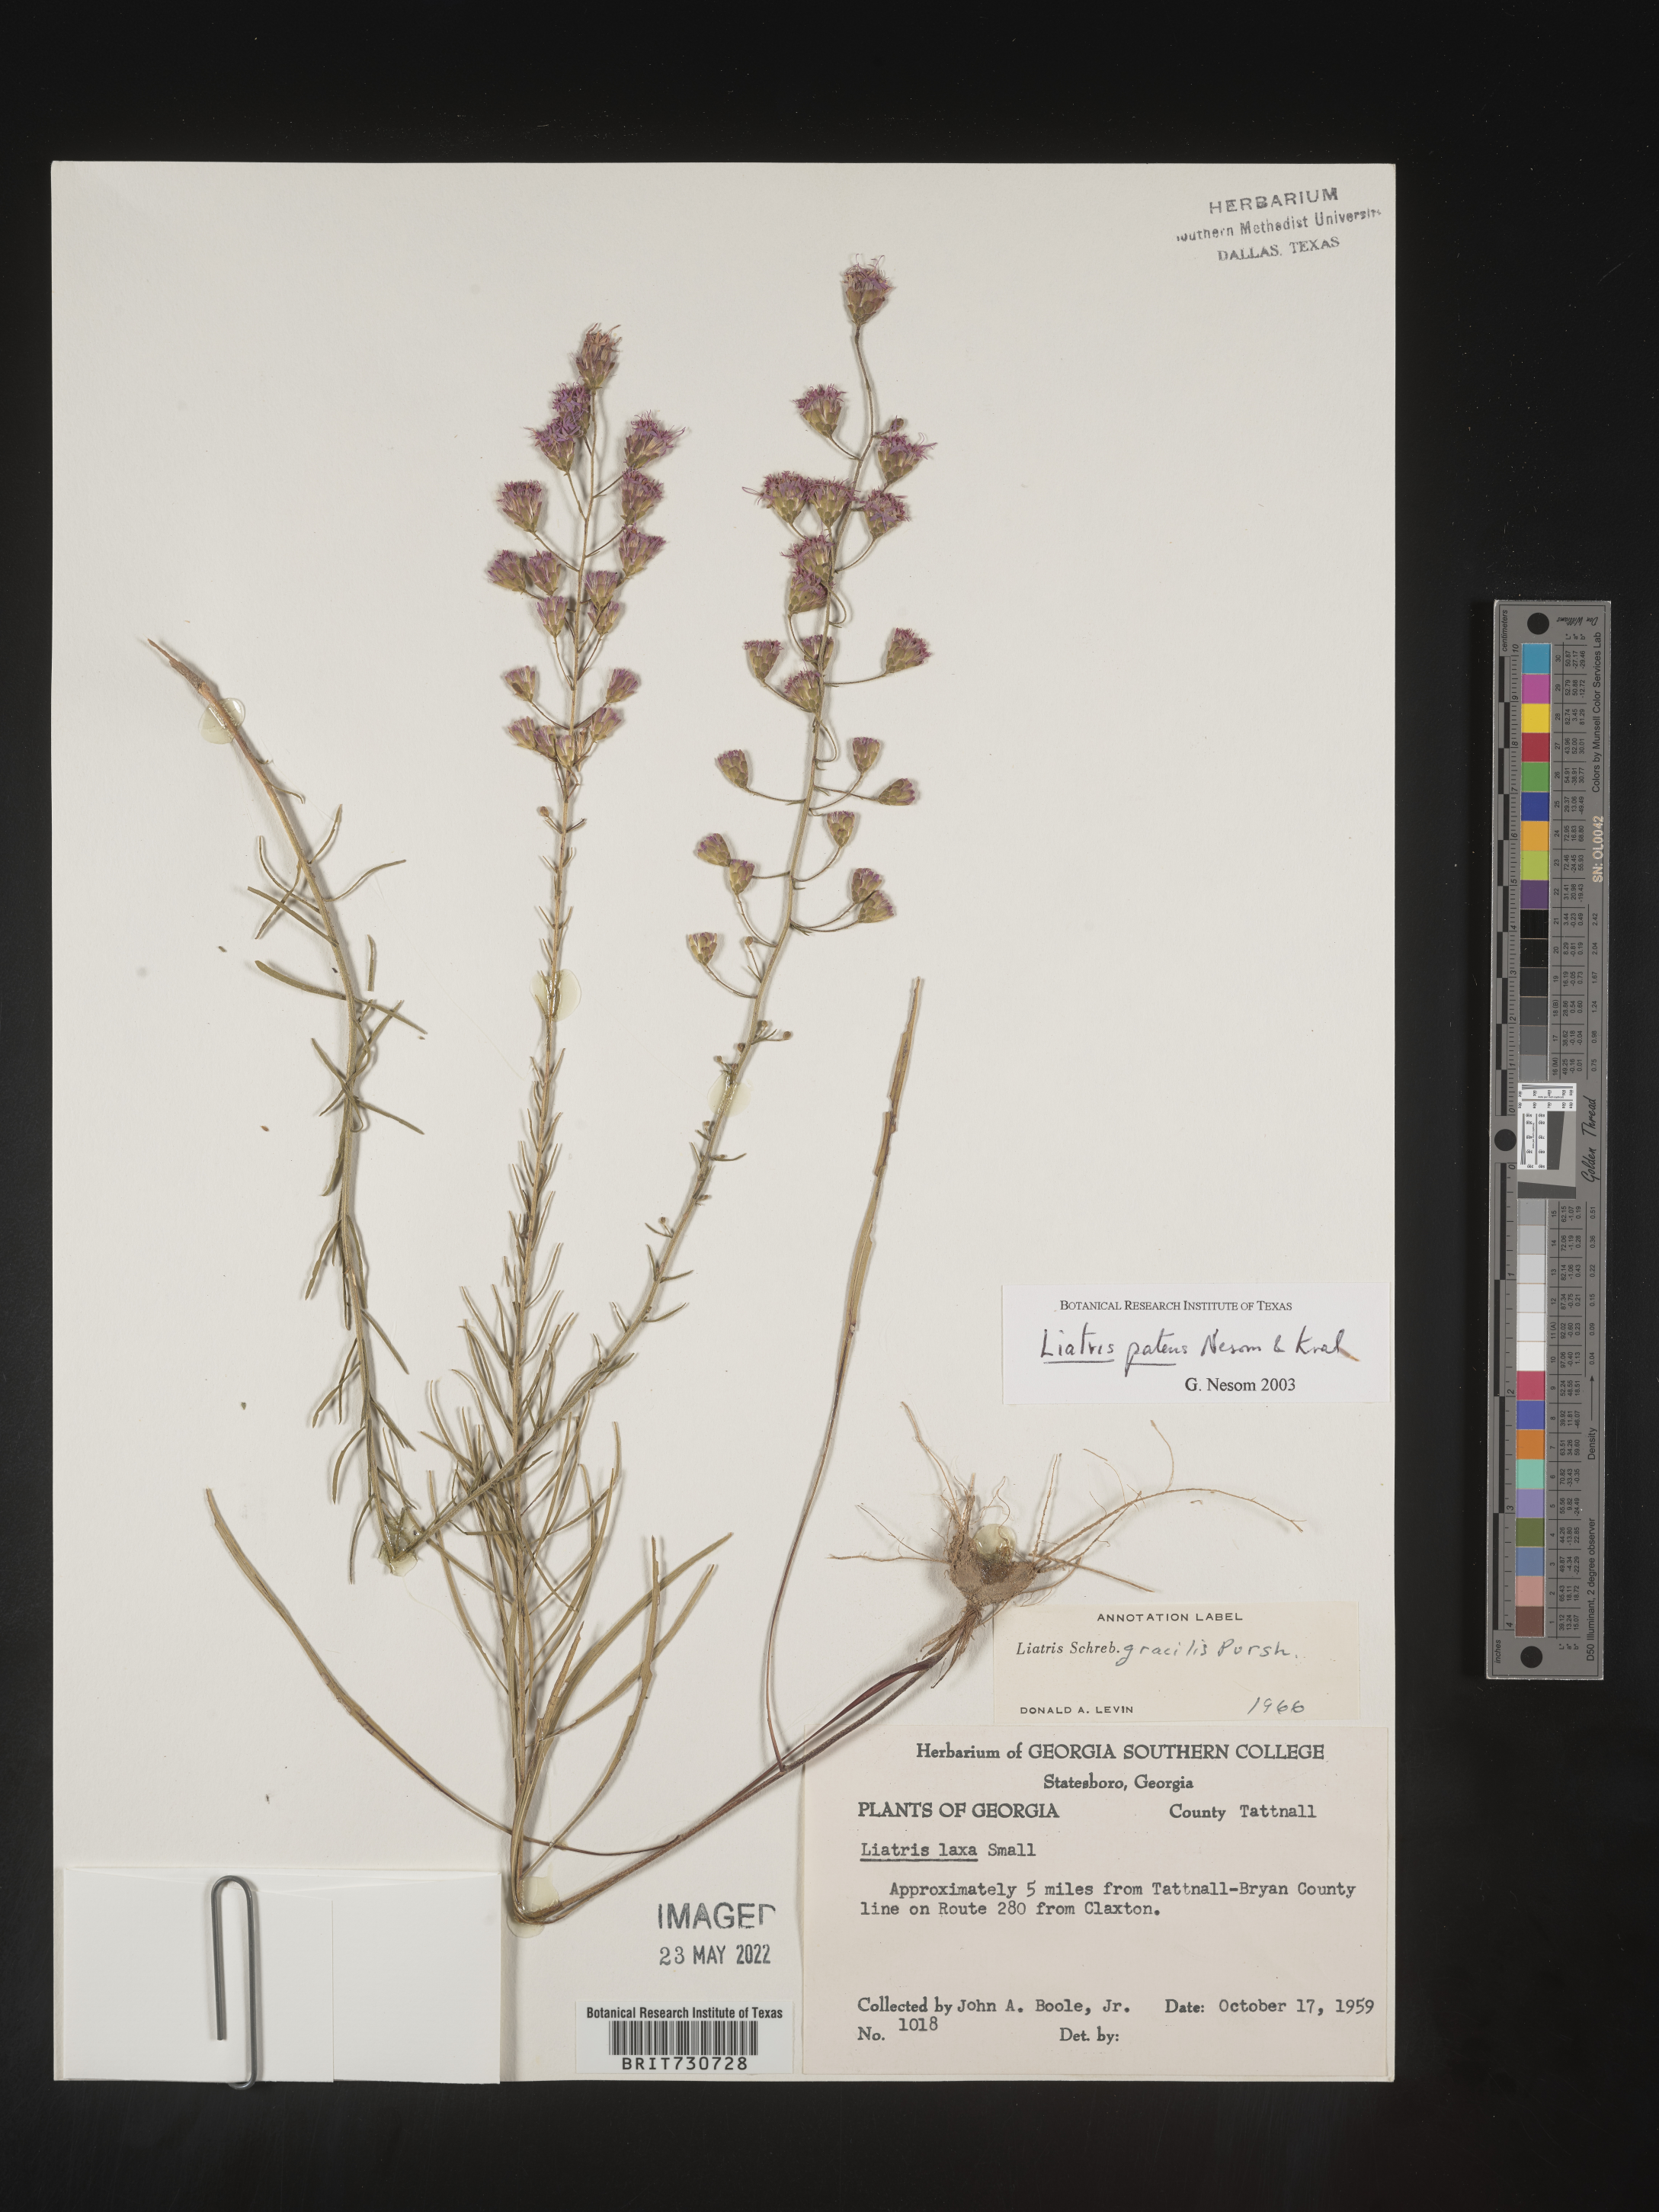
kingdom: Plantae
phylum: Tracheophyta
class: Magnoliopsida
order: Asterales
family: Asteraceae
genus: Liatris
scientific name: Liatris patens
